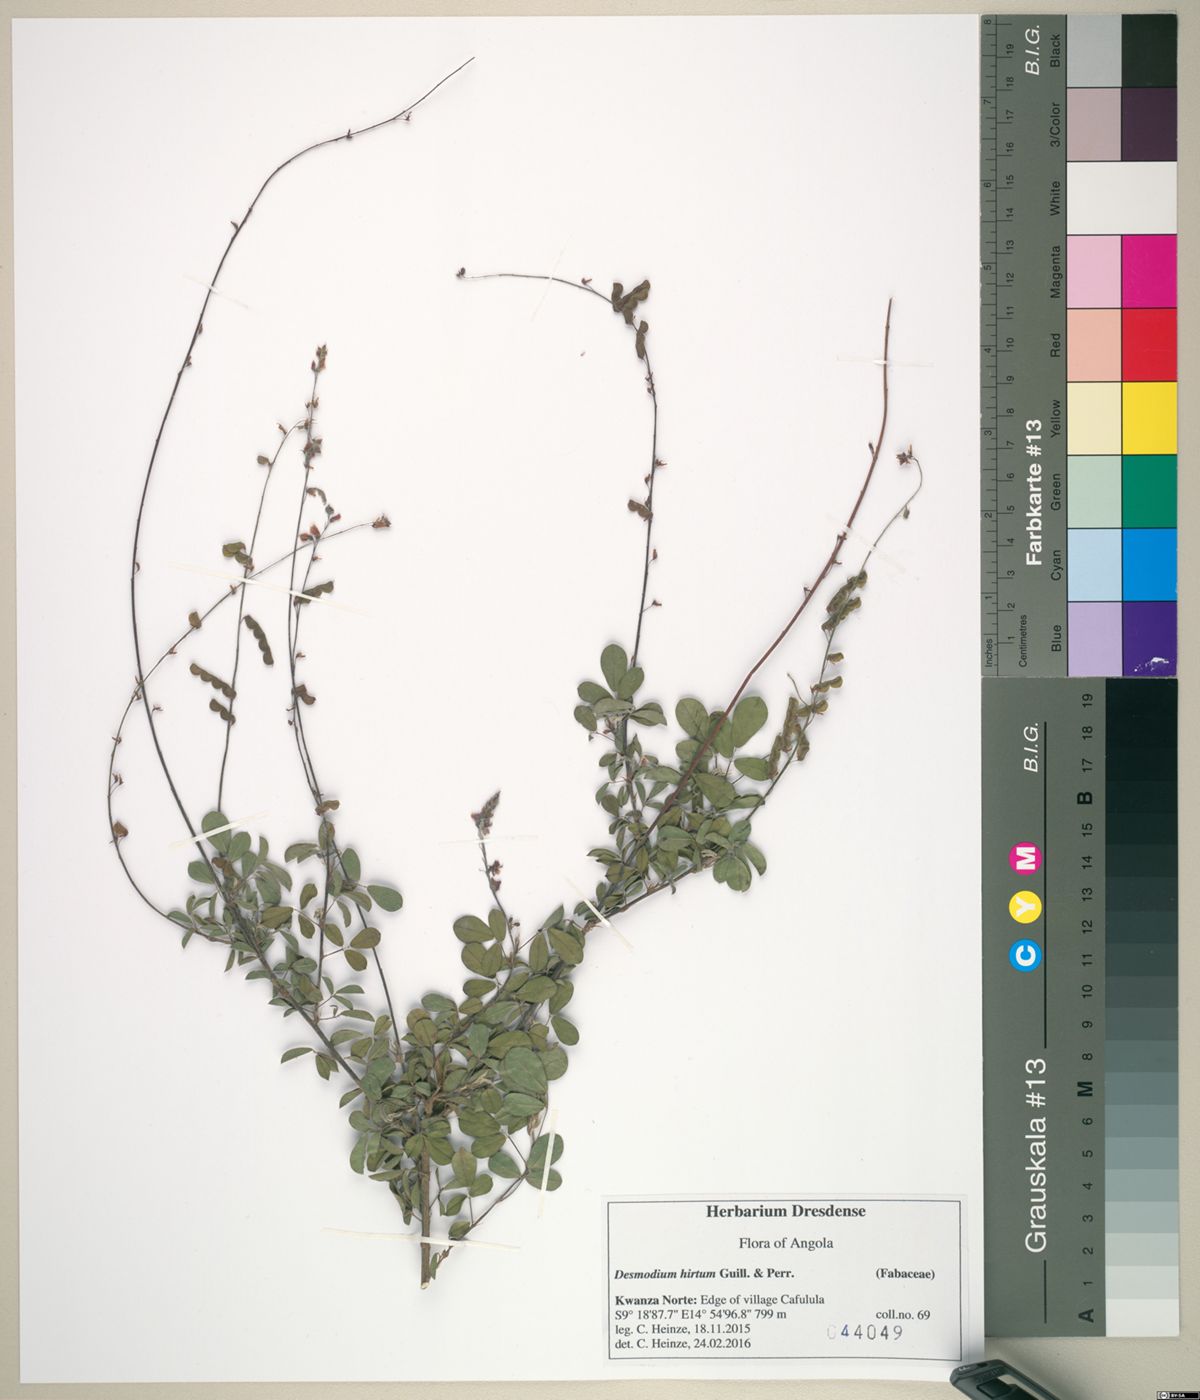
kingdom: Plantae
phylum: Tracheophyta
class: Magnoliopsida
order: Fabales
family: Fabaceae
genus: Grona
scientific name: Grona ramosissima
